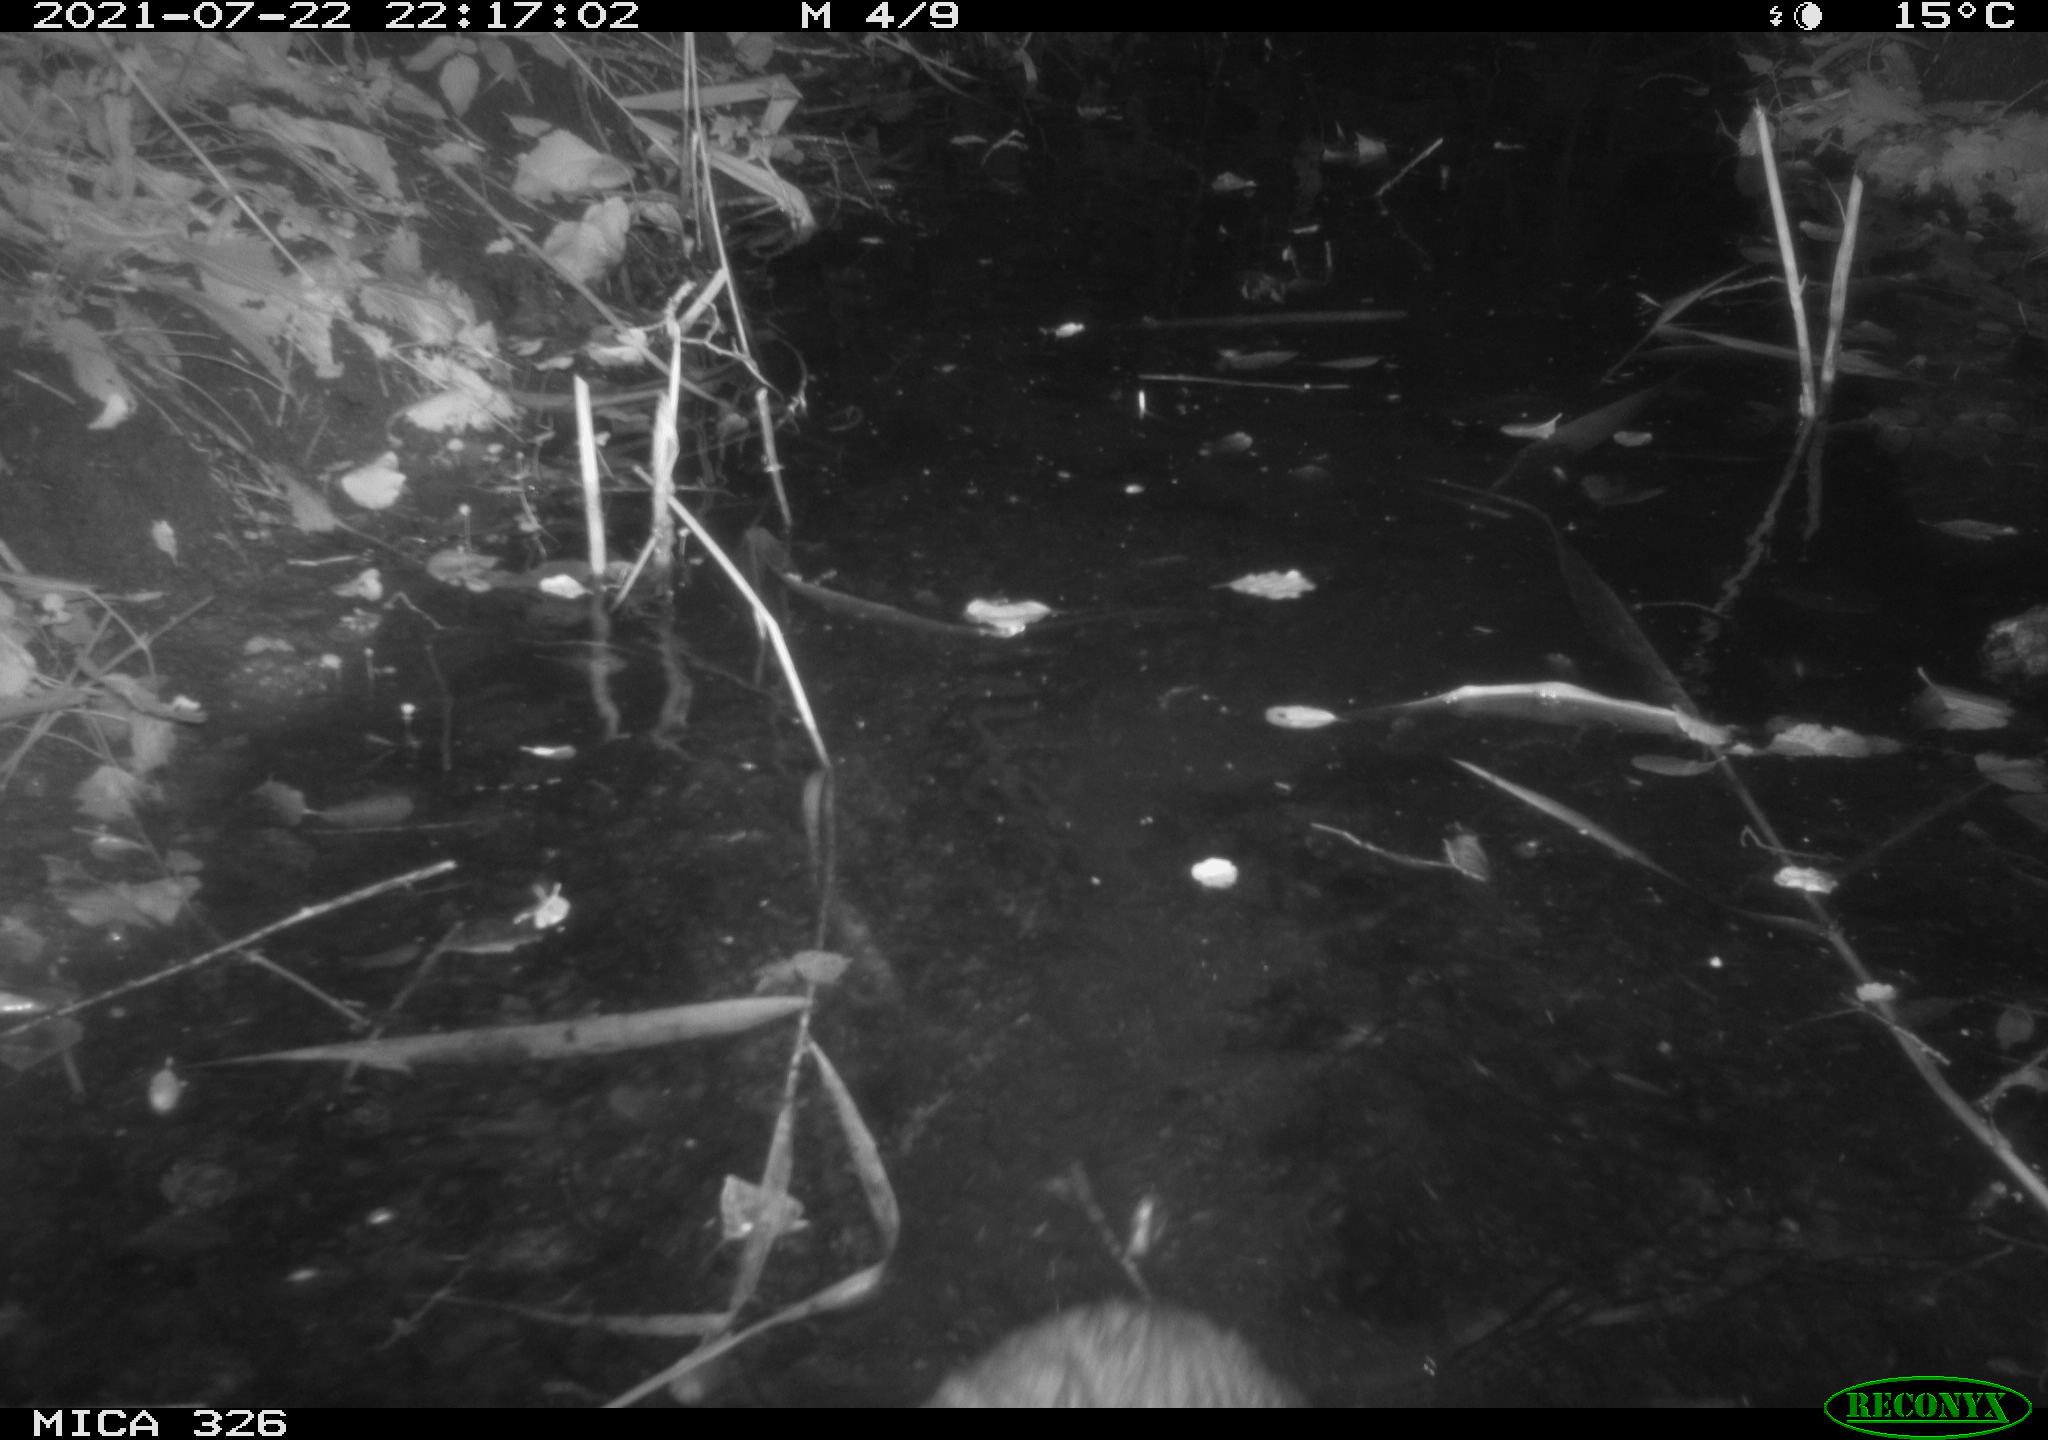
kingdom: Animalia
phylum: Chordata
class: Mammalia
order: Rodentia
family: Myocastoridae
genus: Myocastor
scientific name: Myocastor coypus
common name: Coypu
